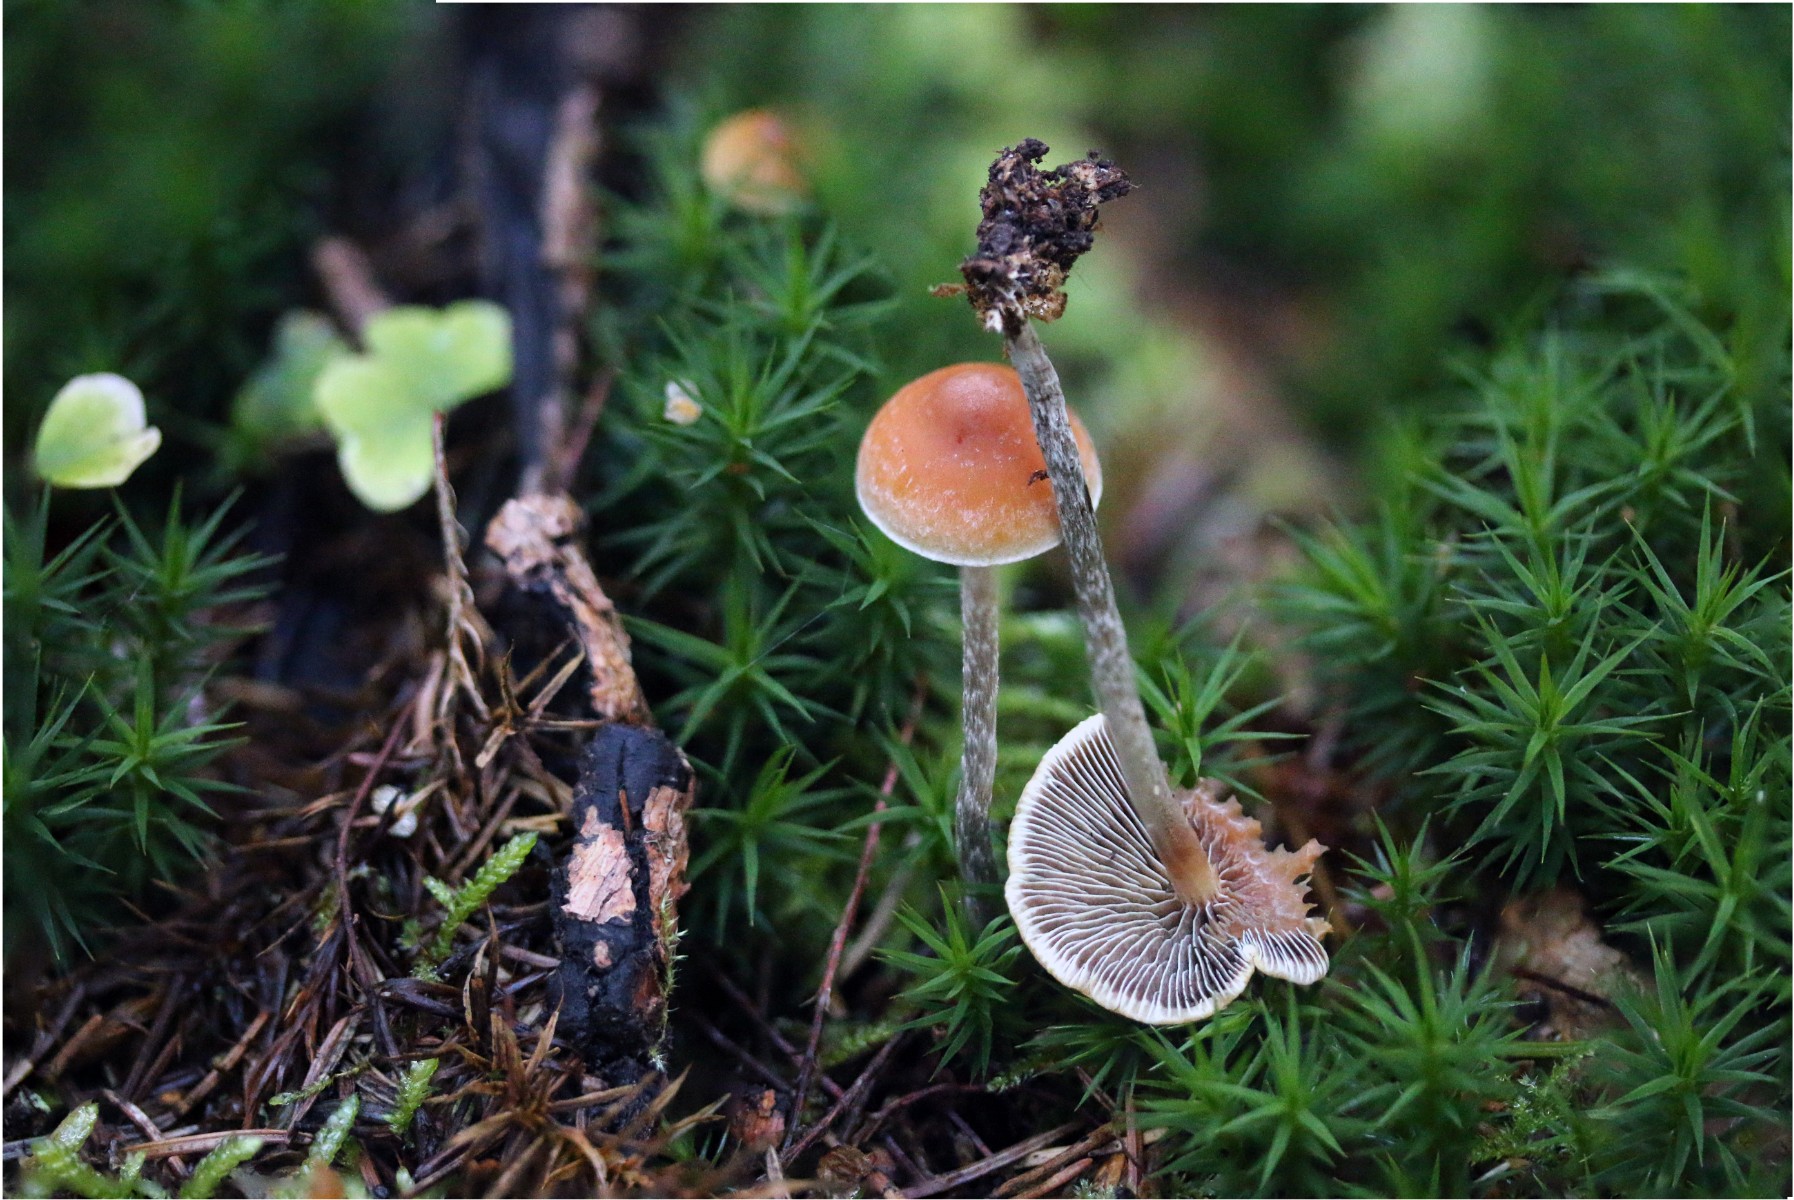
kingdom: Fungi
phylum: Basidiomycota
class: Agaricomycetes
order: Agaricales
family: Strophariaceae
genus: Hypholoma
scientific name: Hypholoma marginatum
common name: enlig svovlhat
